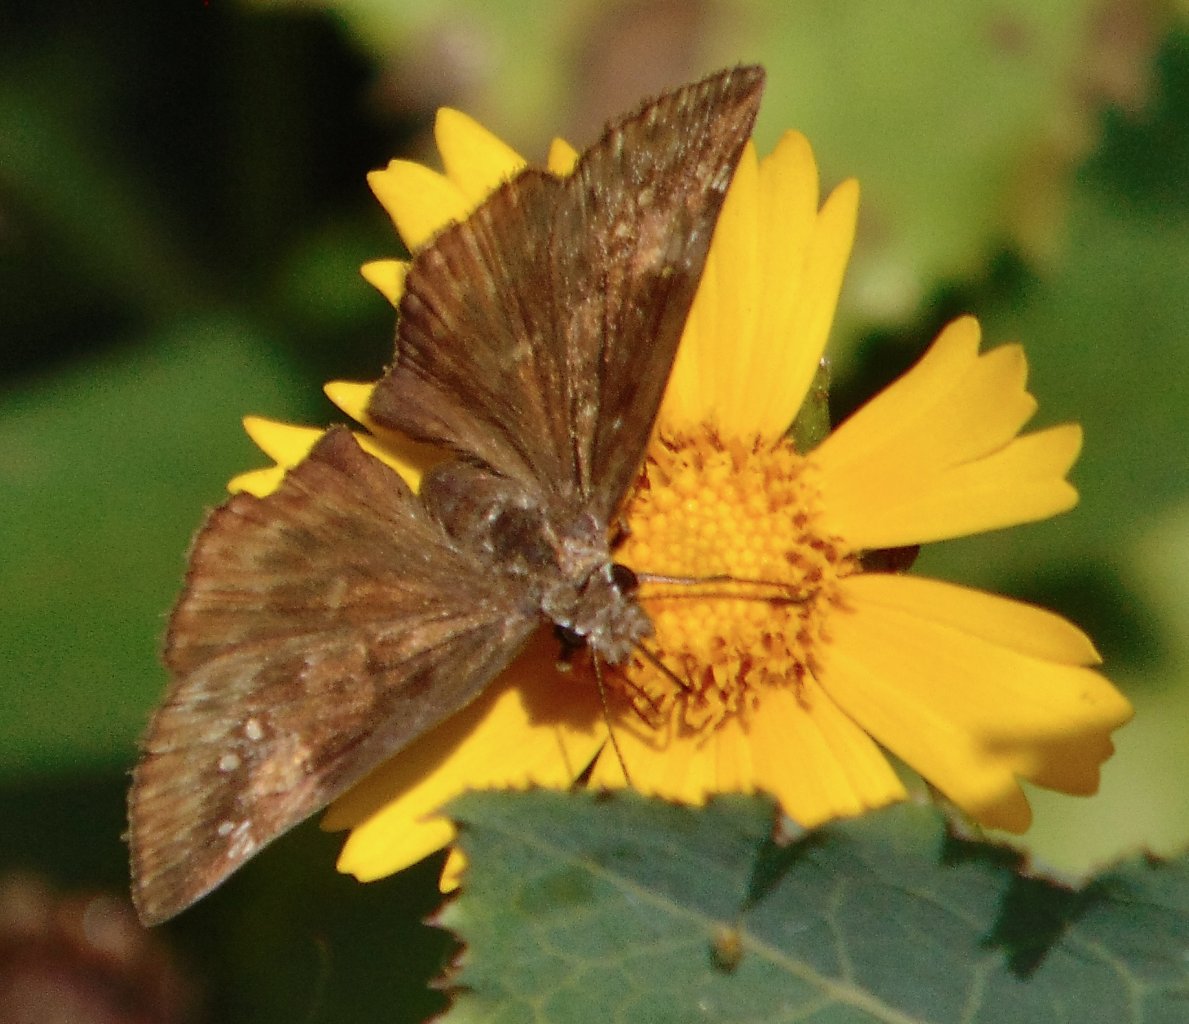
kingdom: Animalia
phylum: Arthropoda
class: Insecta
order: Lepidoptera
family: Hesperiidae
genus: Gesta
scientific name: Gesta
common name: Wild Indigo Duskywing
